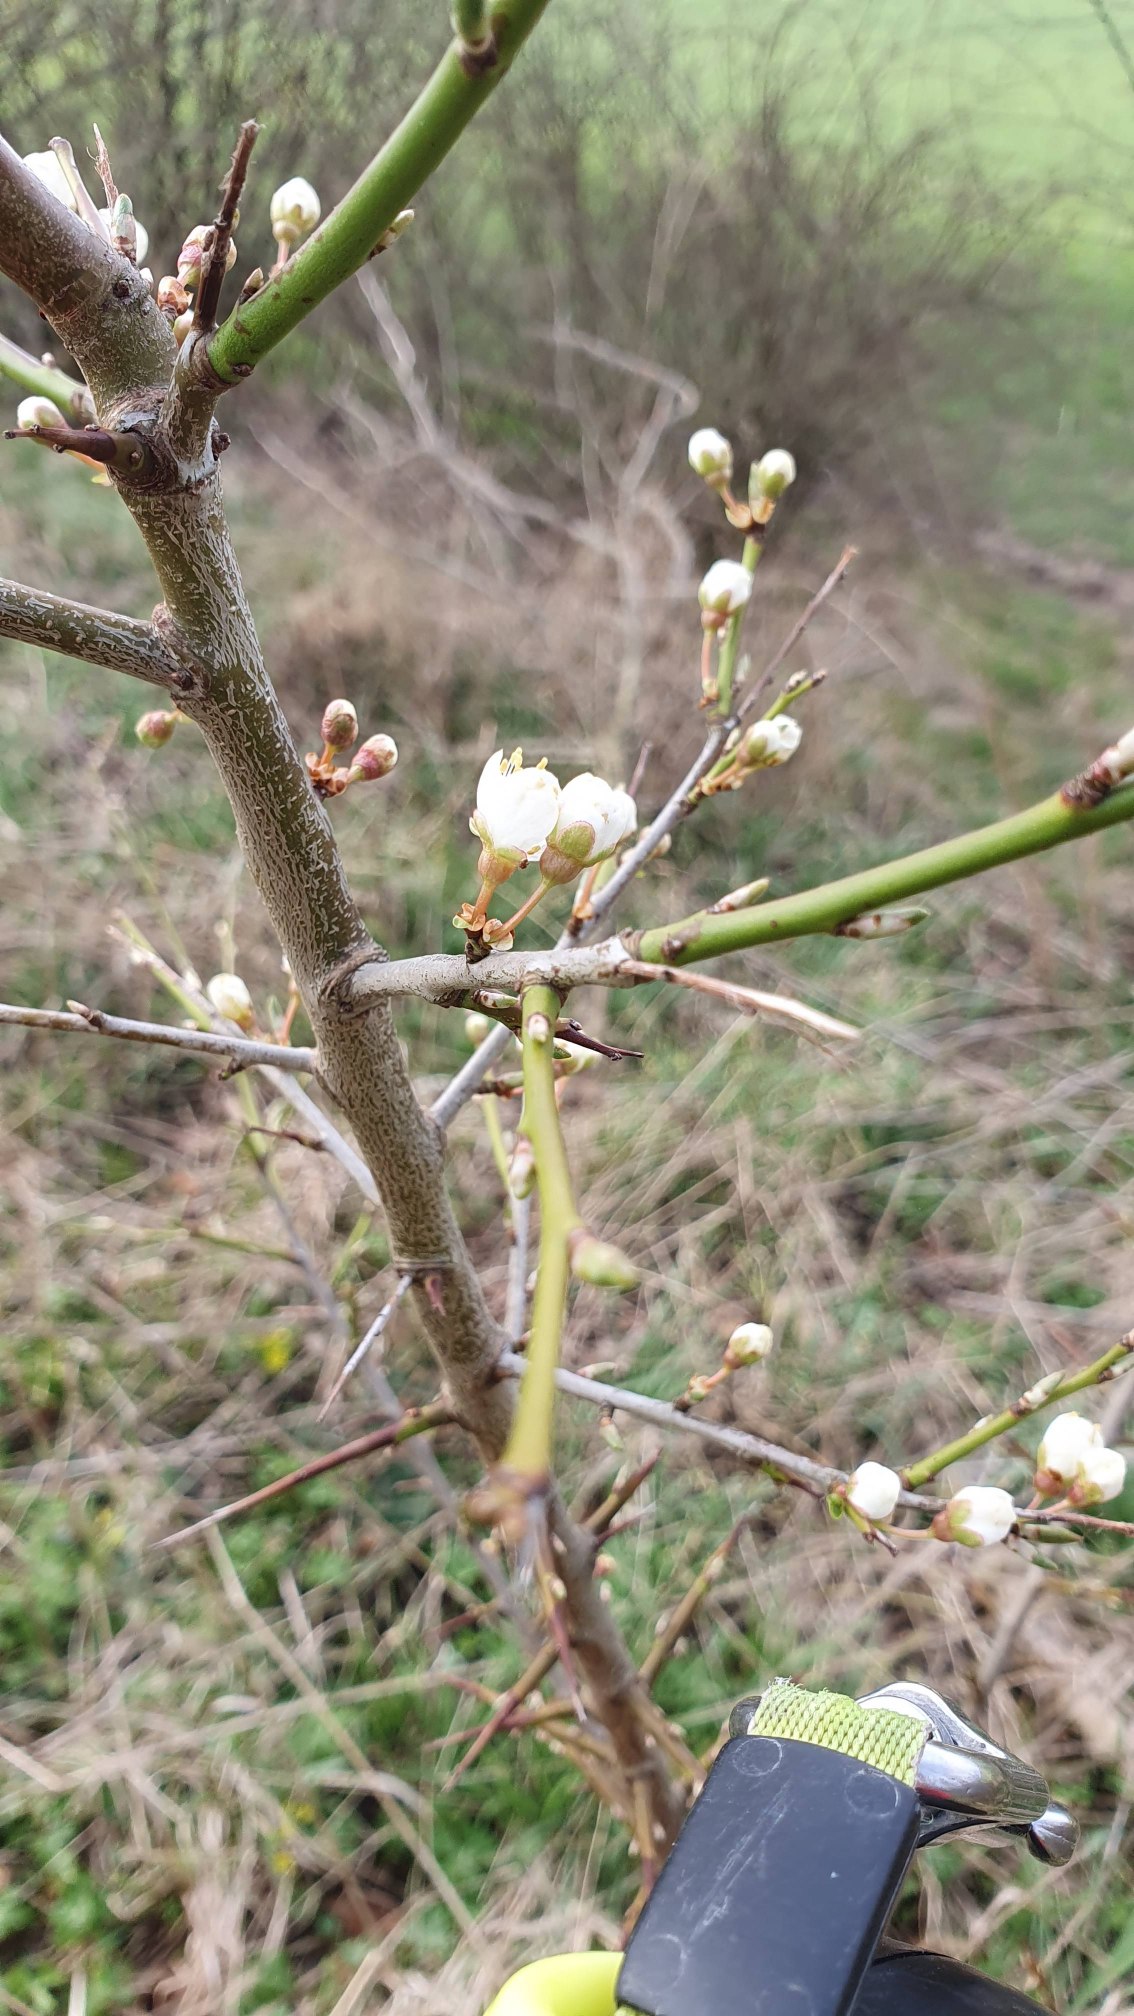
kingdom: Plantae
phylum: Tracheophyta
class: Magnoliopsida
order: Rosales
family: Rosaceae
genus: Prunus
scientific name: Prunus cerasifera
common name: Mirabel
